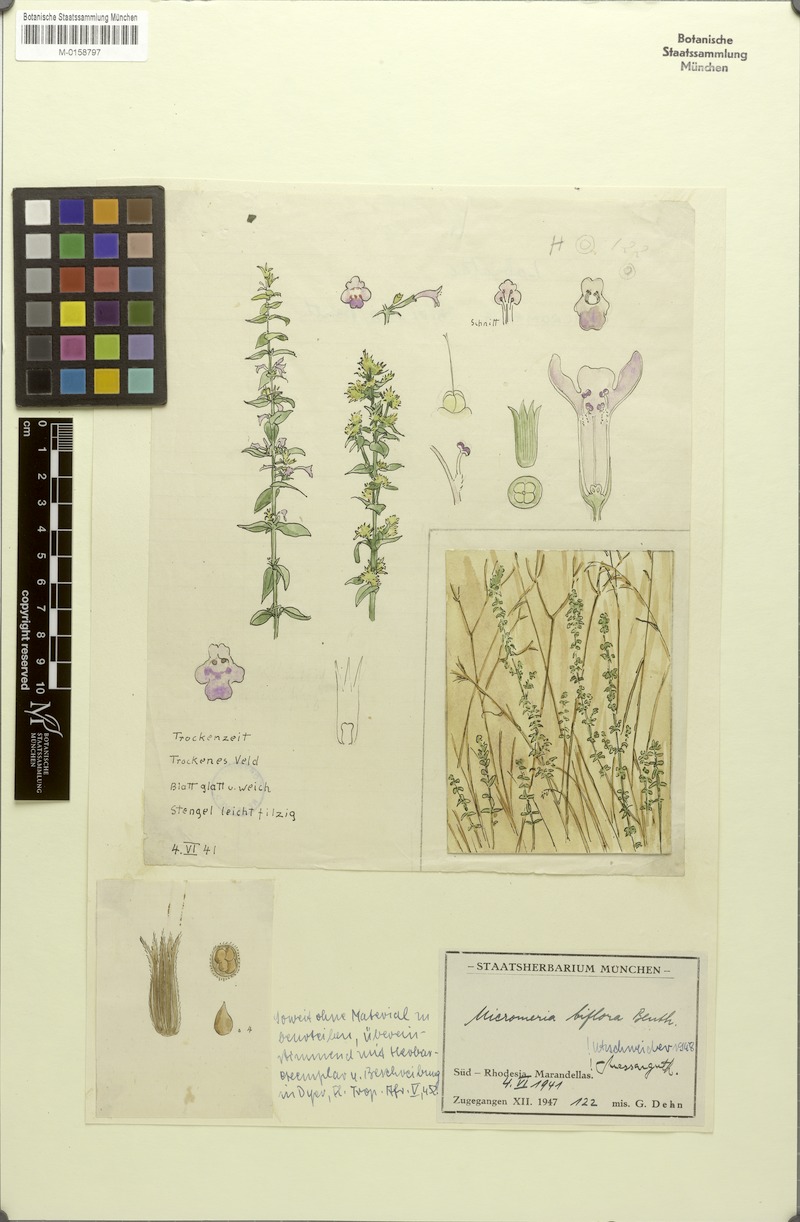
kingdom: Plantae
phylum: Tracheophyta
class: Magnoliopsida
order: Lamiales
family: Lamiaceae
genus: Micromeria
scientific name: Micromeria biflora
